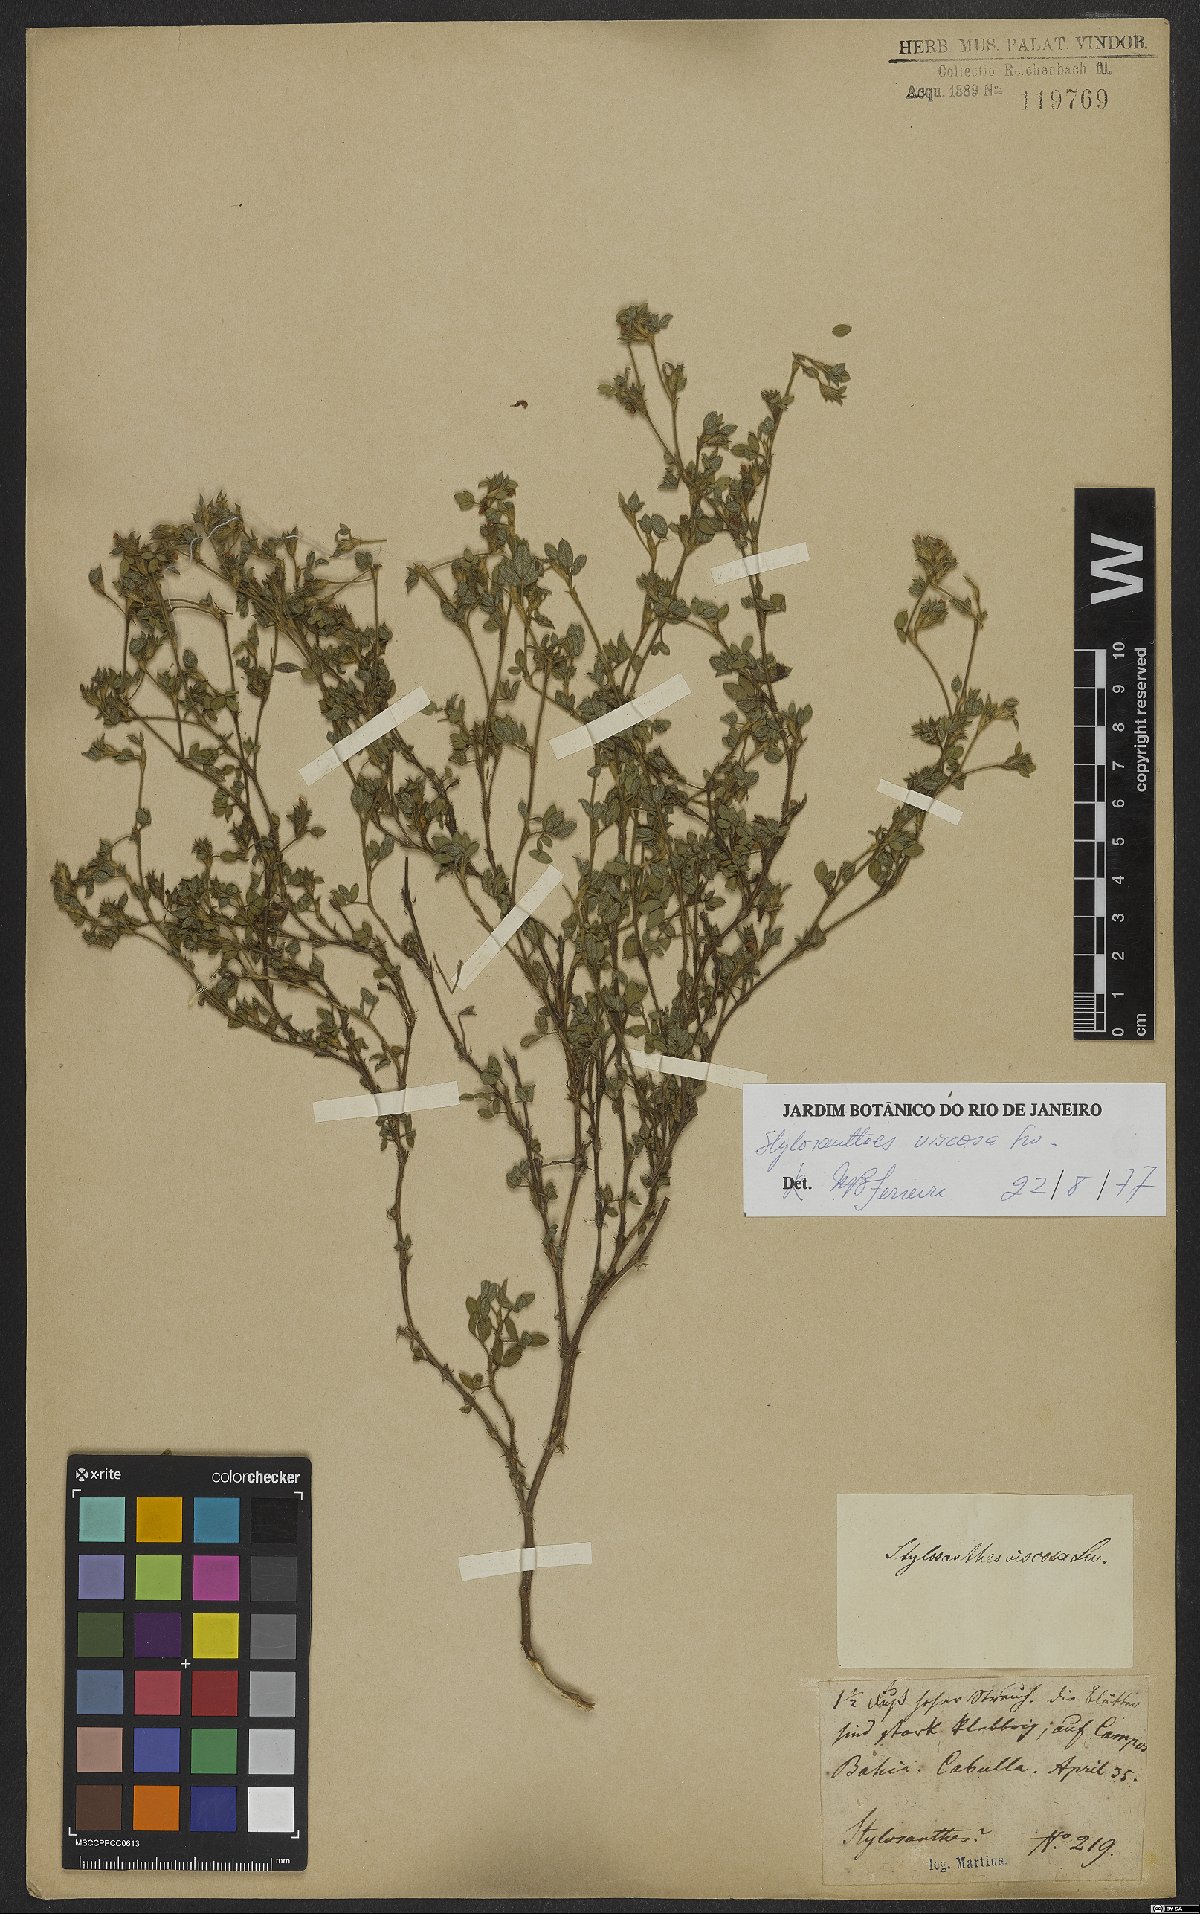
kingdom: Plantae
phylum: Tracheophyta
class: Magnoliopsida
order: Fabales
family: Fabaceae
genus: Stylosanthes
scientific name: Stylosanthes viscosa
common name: Viscid pencil-flower
